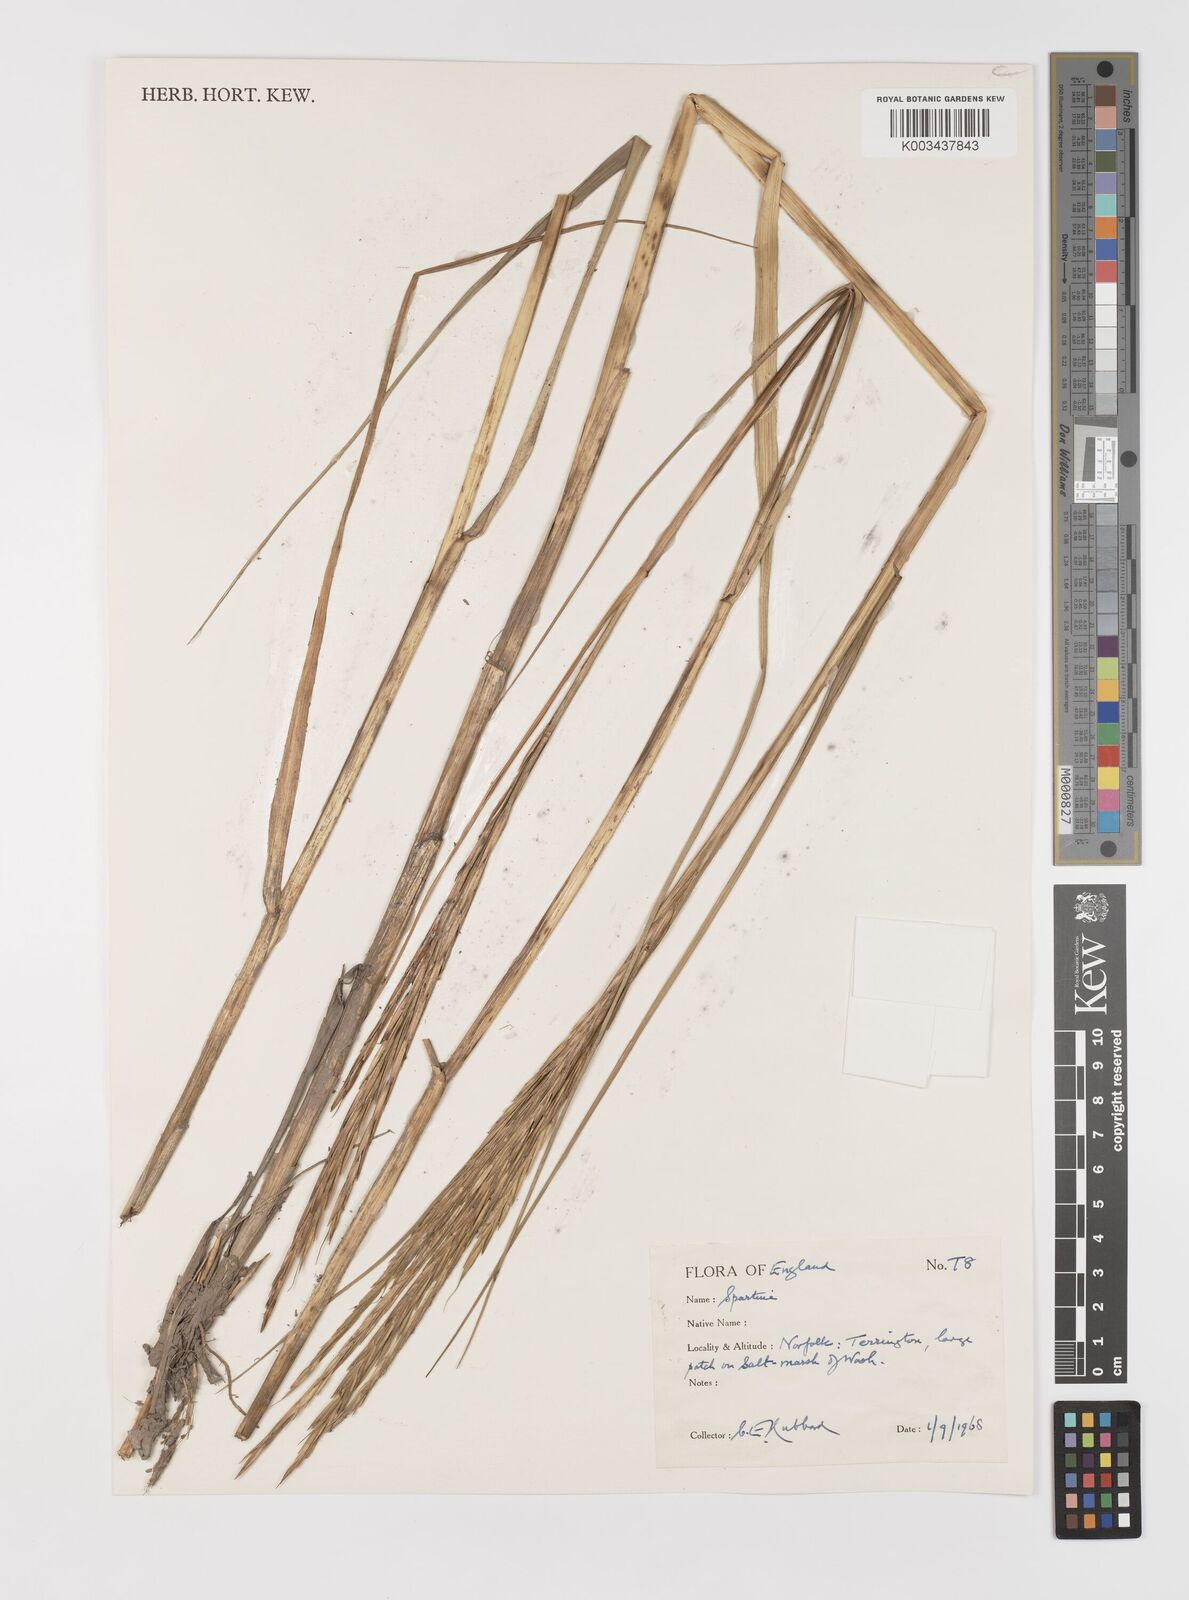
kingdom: Animalia
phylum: Mollusca
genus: Spartina
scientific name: Spartina
